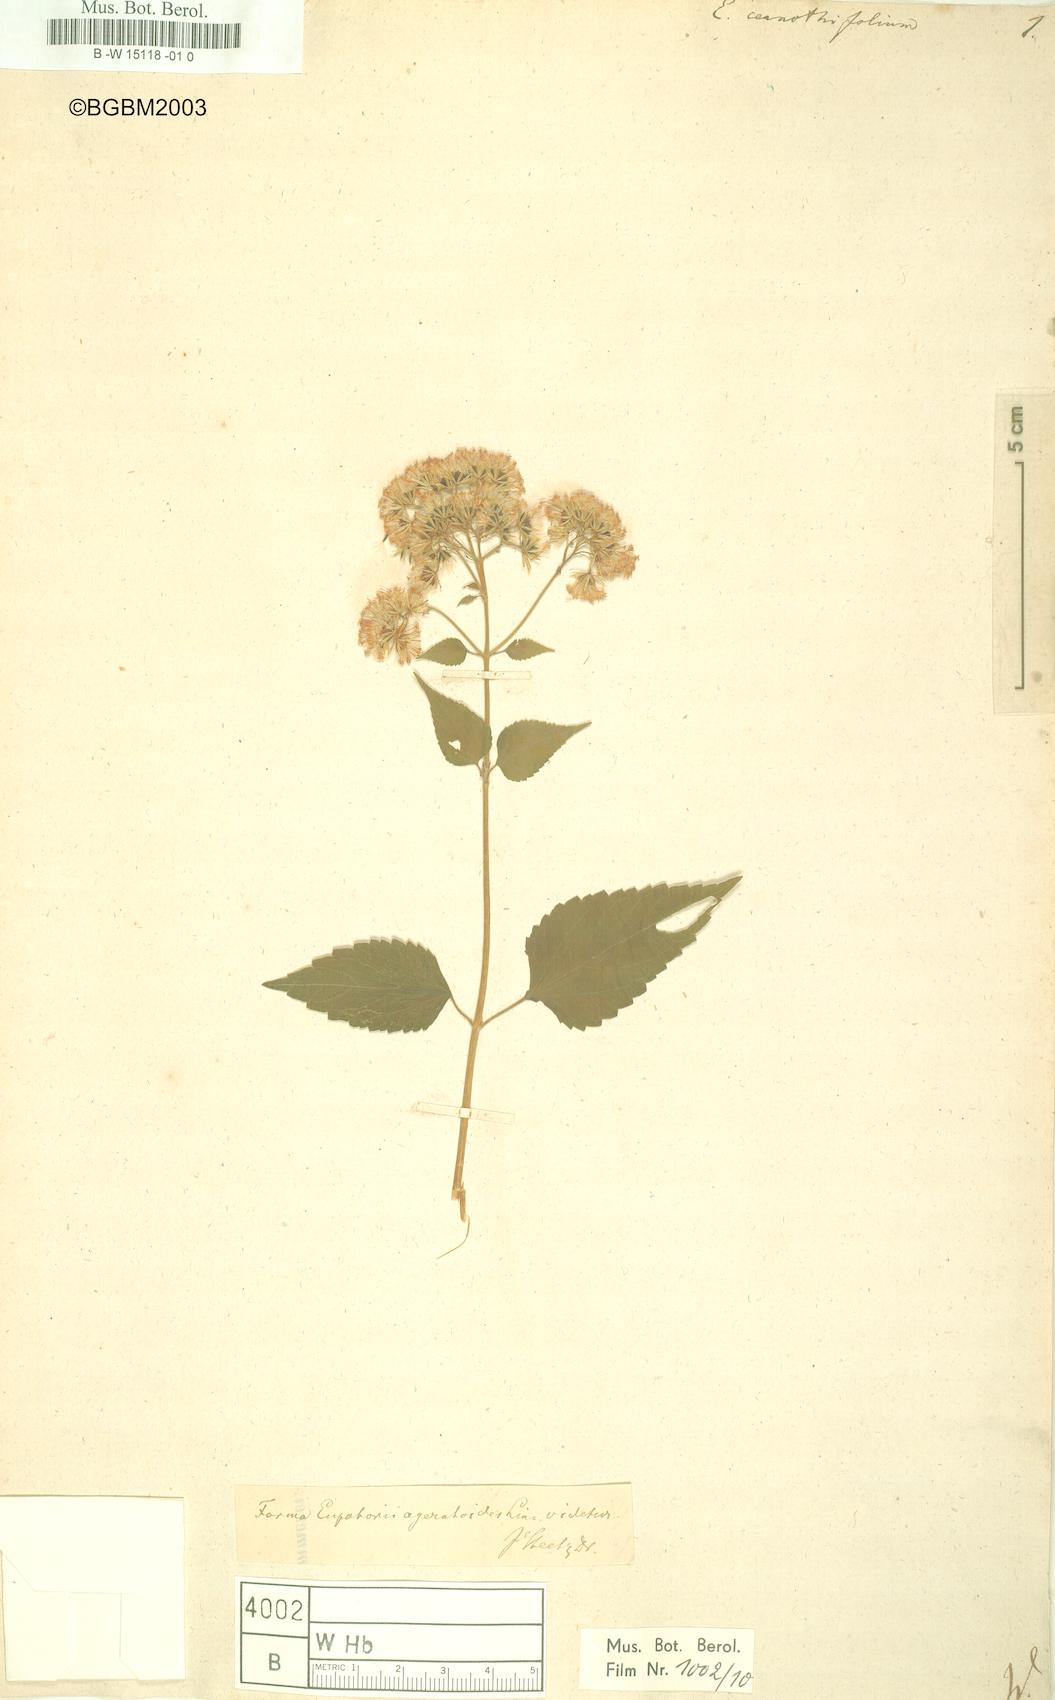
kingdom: Plantae
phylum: Tracheophyta
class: Magnoliopsida
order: Asterales
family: Asteraceae
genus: Ageratina
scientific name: Ageratina
